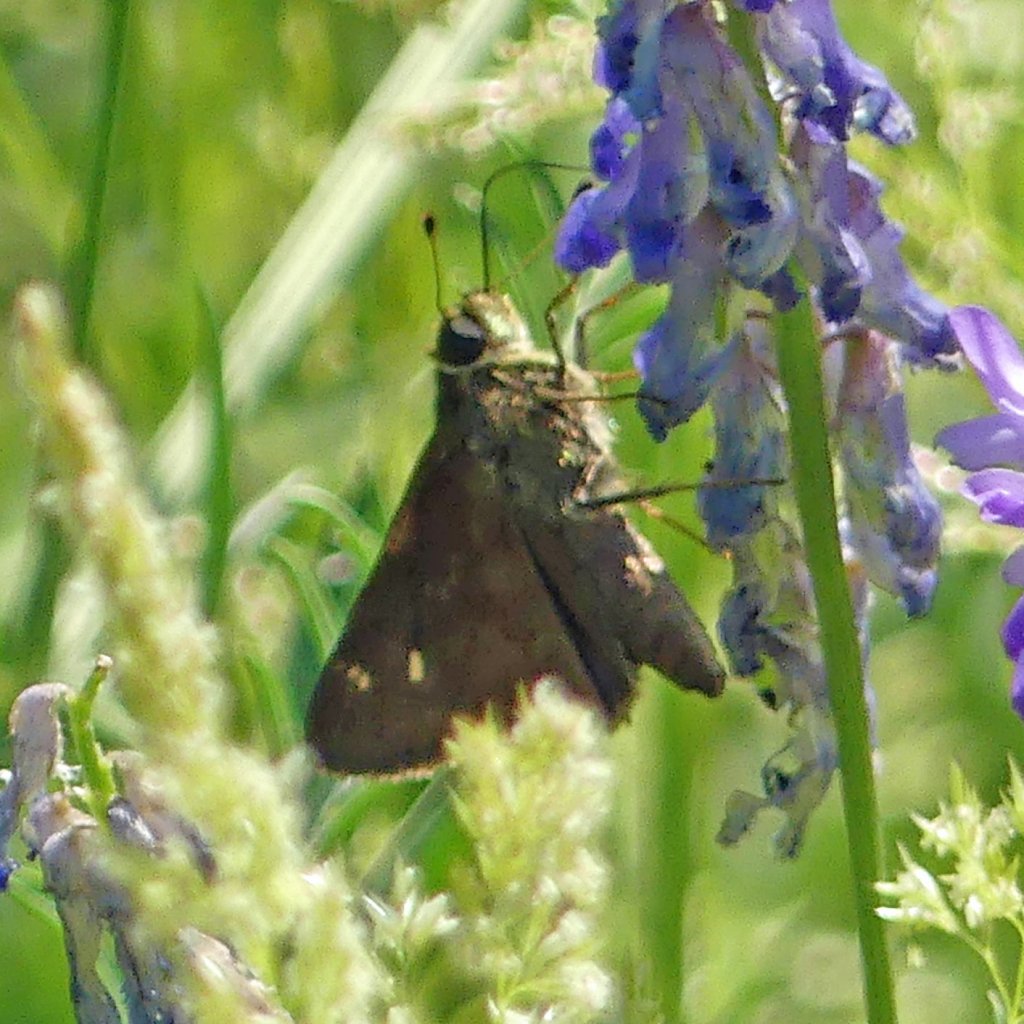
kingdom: Animalia
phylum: Arthropoda
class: Insecta
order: Lepidoptera
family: Hesperiidae
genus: Vernia
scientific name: Vernia verna
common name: Little Glassywing
